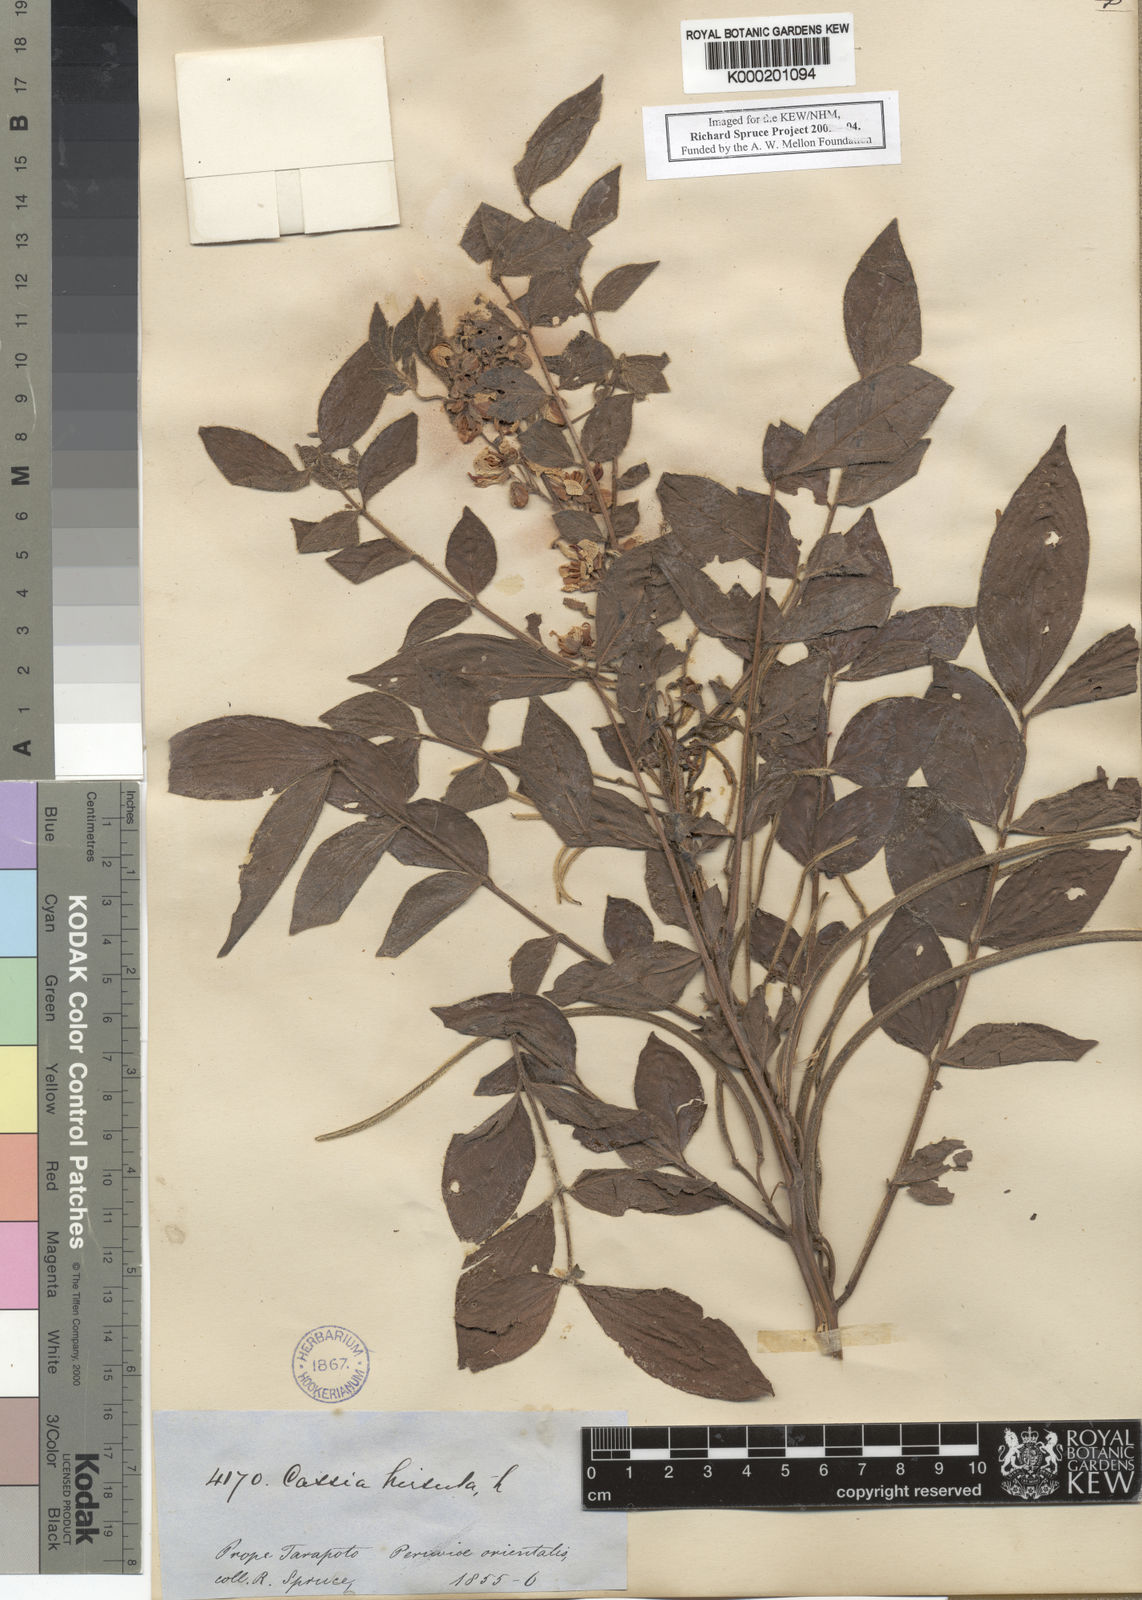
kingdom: Plantae
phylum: Tracheophyta
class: Magnoliopsida
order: Fabales
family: Fabaceae
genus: Senna
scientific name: Senna hirsuta
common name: Woolly senna
